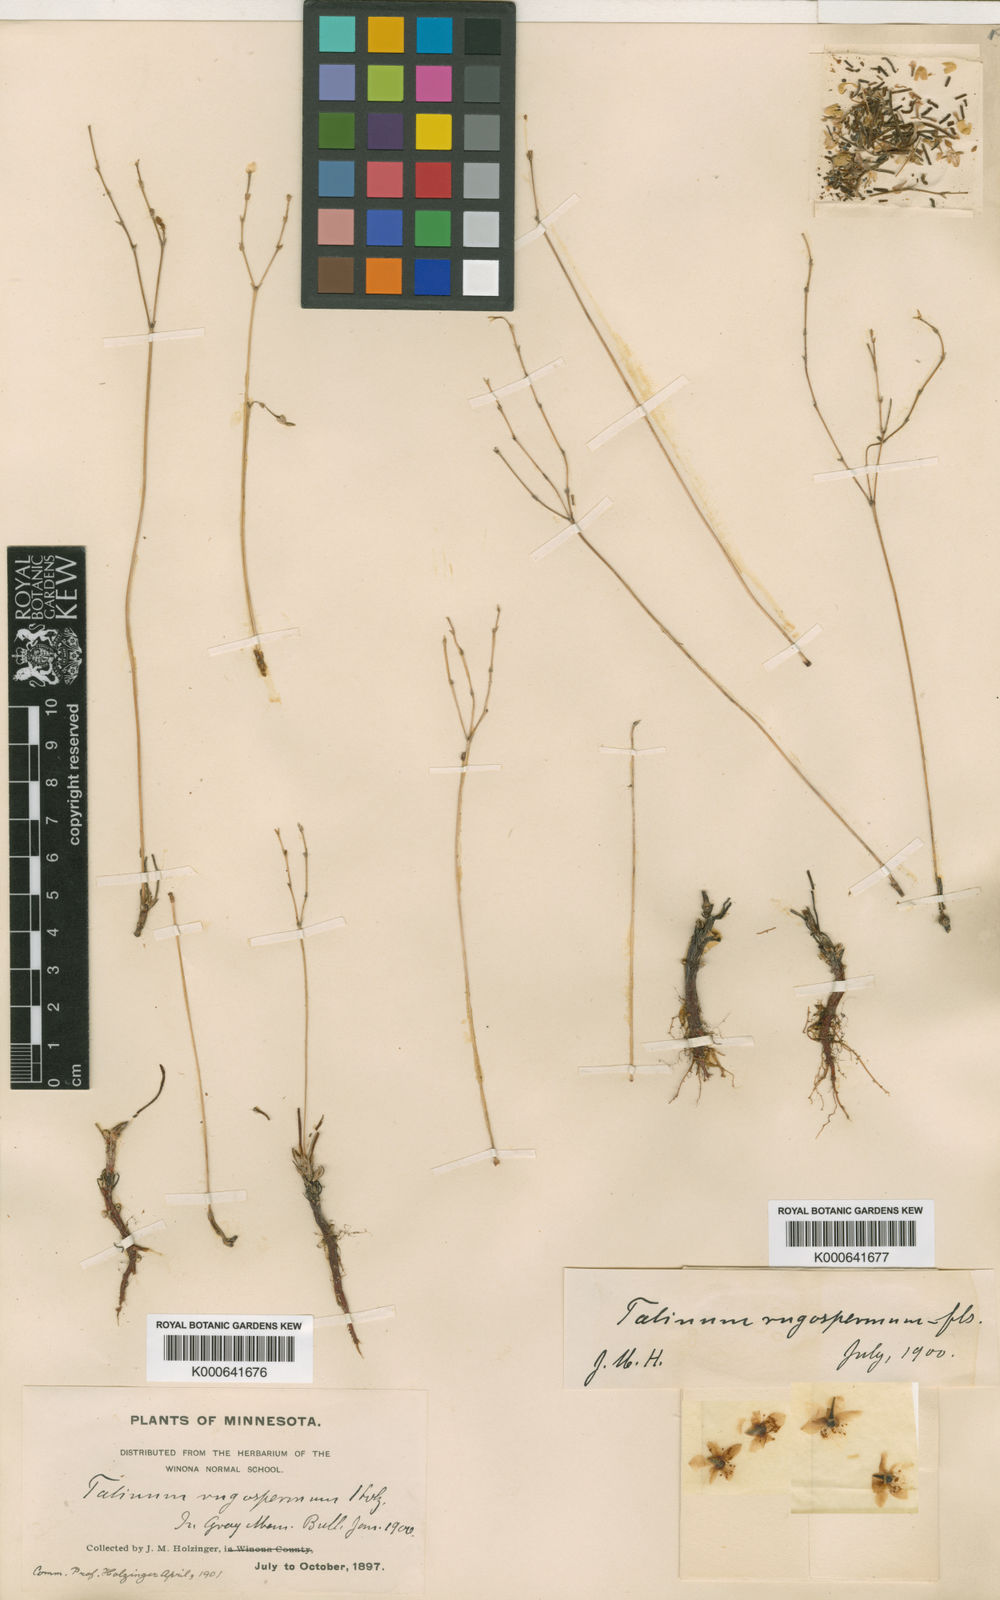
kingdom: Plantae
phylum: Tracheophyta
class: Magnoliopsida
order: Caryophyllales
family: Montiaceae
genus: Phemeranthus
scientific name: Phemeranthus rugospermus
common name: Prairie fameflower
